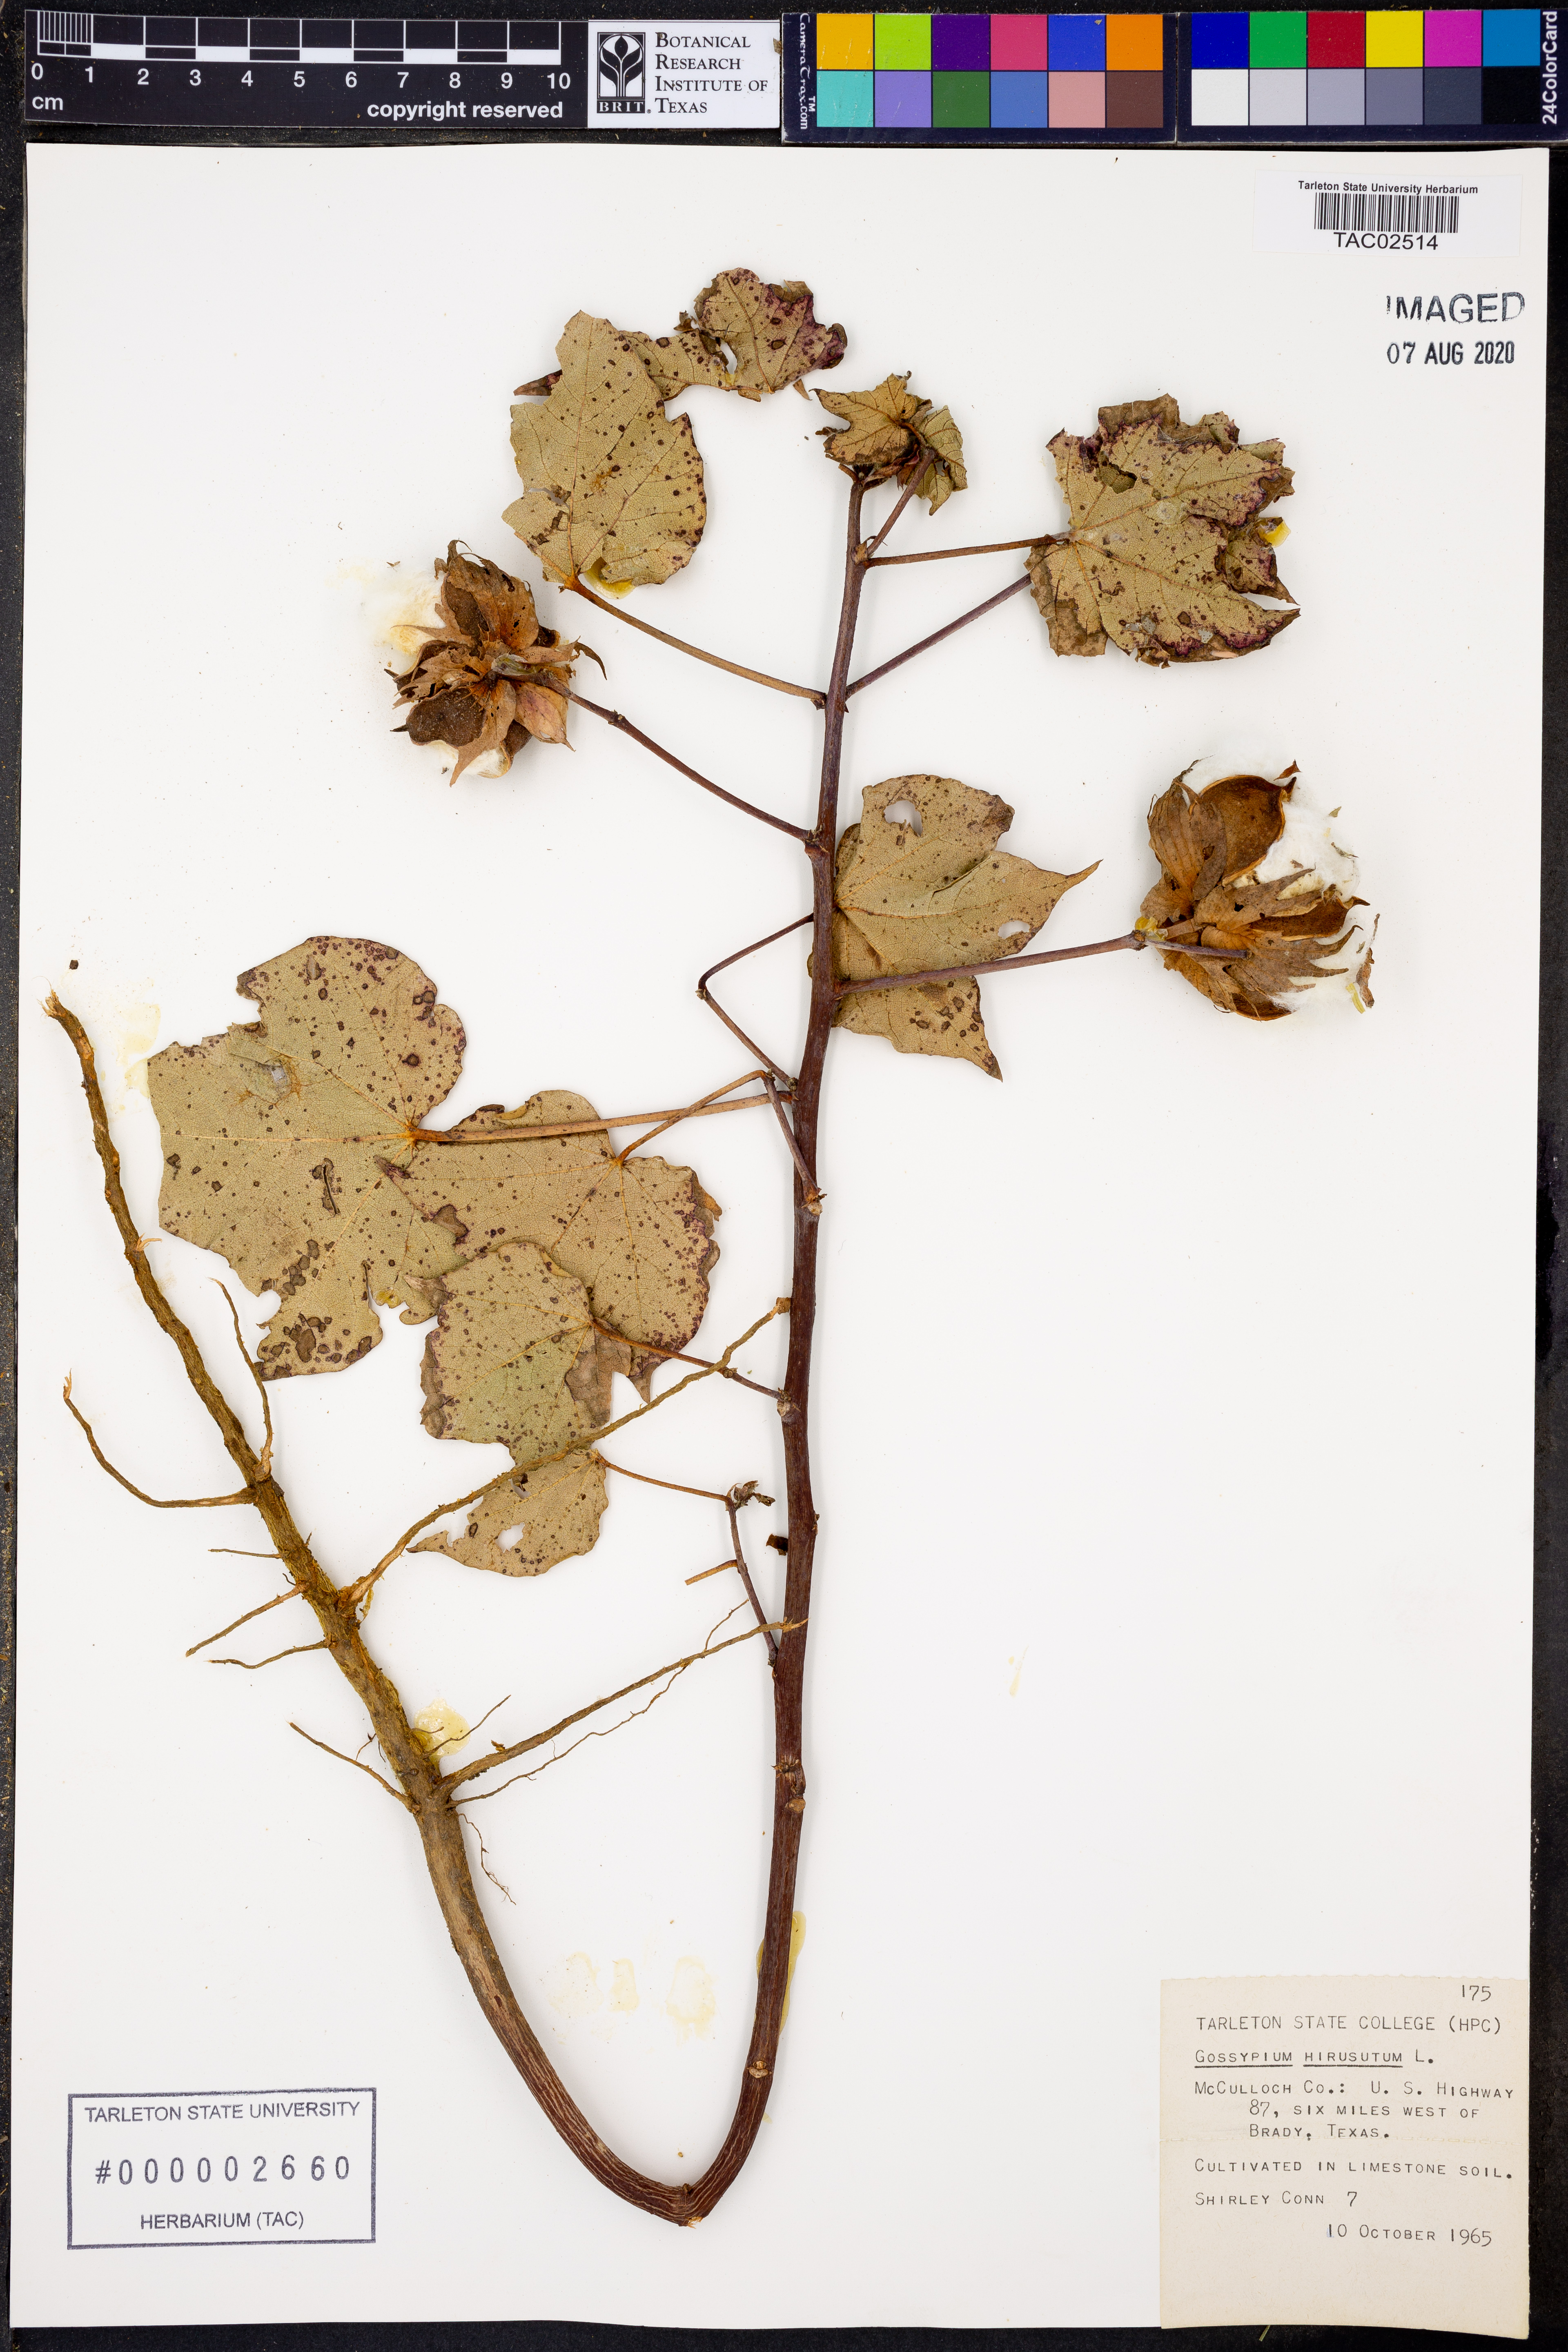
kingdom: Plantae
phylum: Tracheophyta
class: Magnoliopsida
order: Malvales
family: Malvaceae
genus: Gossypium
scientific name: Gossypium hirsutum
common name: Cotton
